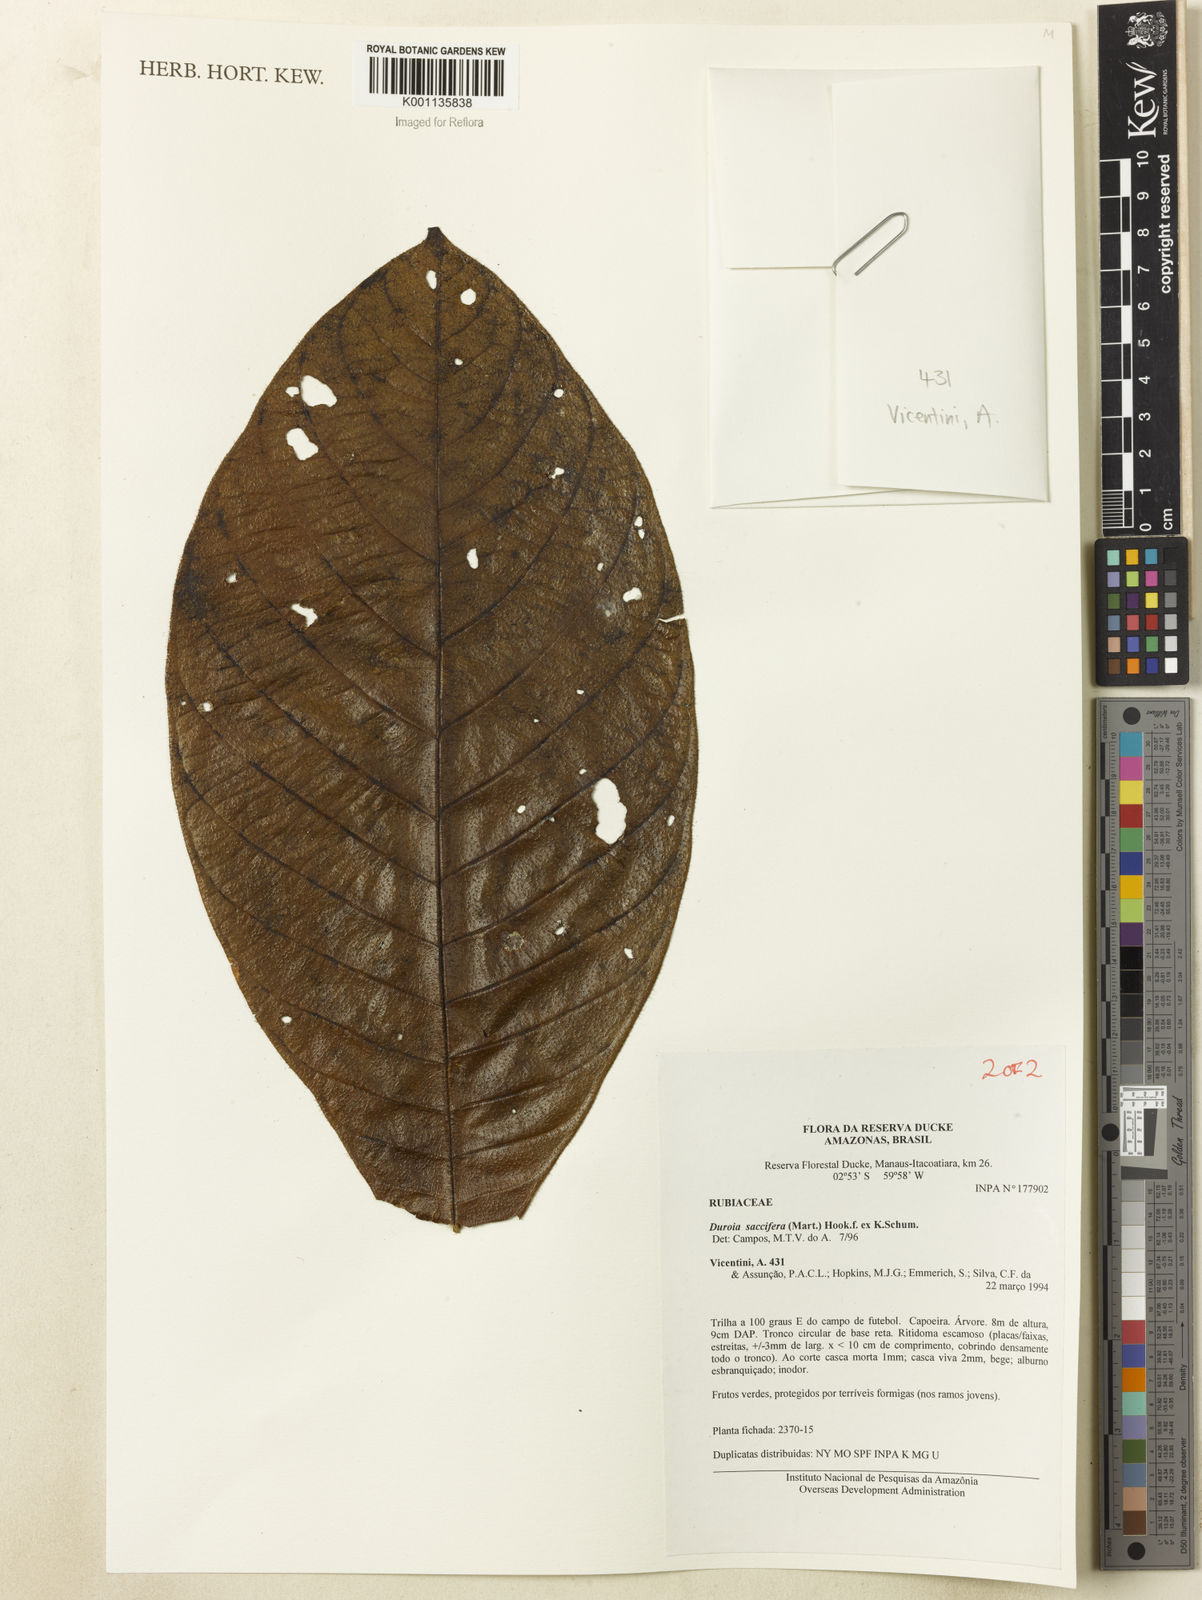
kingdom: Plantae
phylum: Tracheophyta
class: Magnoliopsida
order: Gentianales
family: Rubiaceae
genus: Duroia
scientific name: Duroia saccifera
